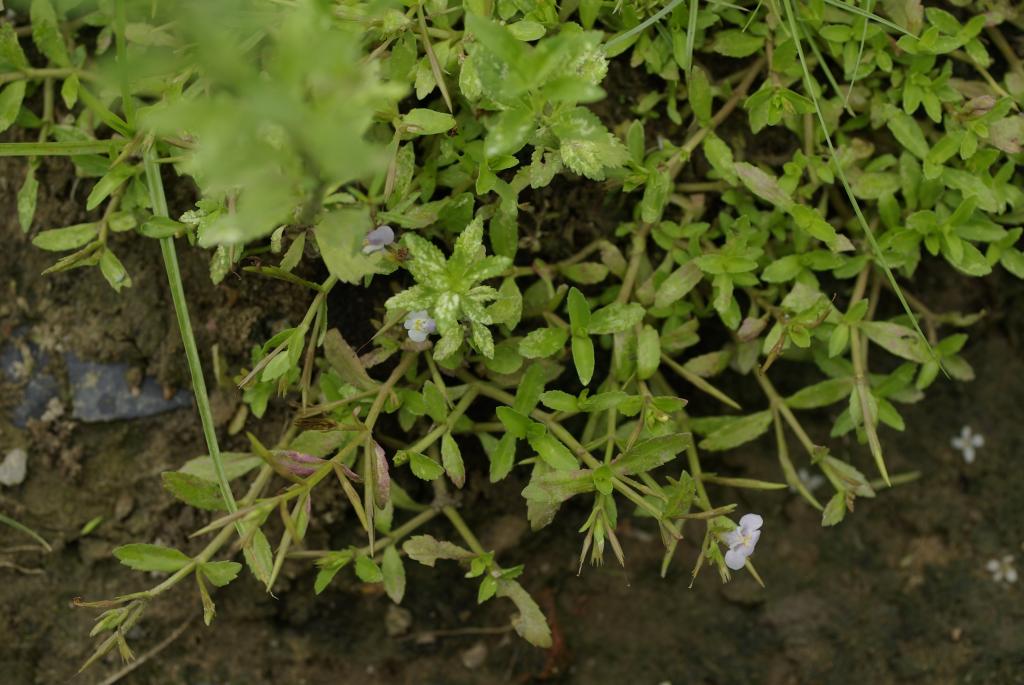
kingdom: Plantae
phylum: Tracheophyta
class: Magnoliopsida
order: Lamiales
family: Linderniaceae
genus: Bonnaya
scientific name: Bonnaya antipoda
